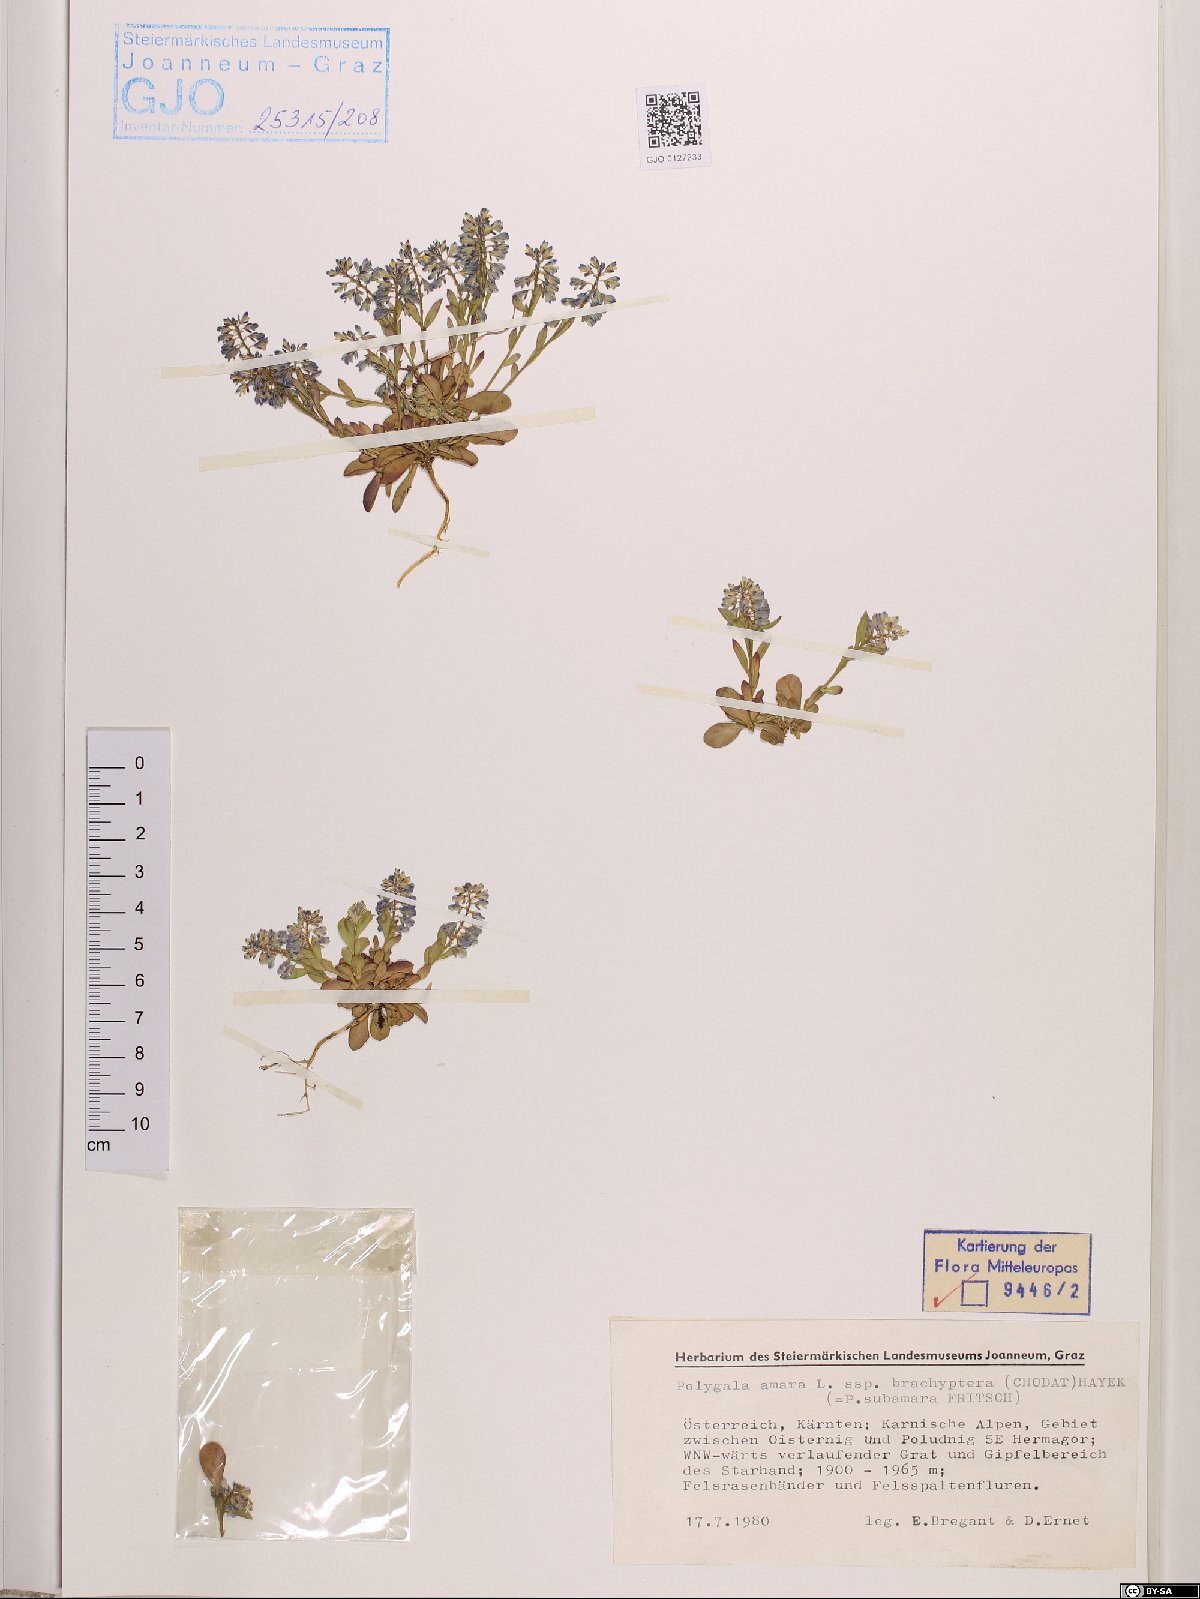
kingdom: Plantae
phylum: Tracheophyta
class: Magnoliopsida
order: Fabales
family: Polygalaceae
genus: Polygala
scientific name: Polygala amara
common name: Milkwort
